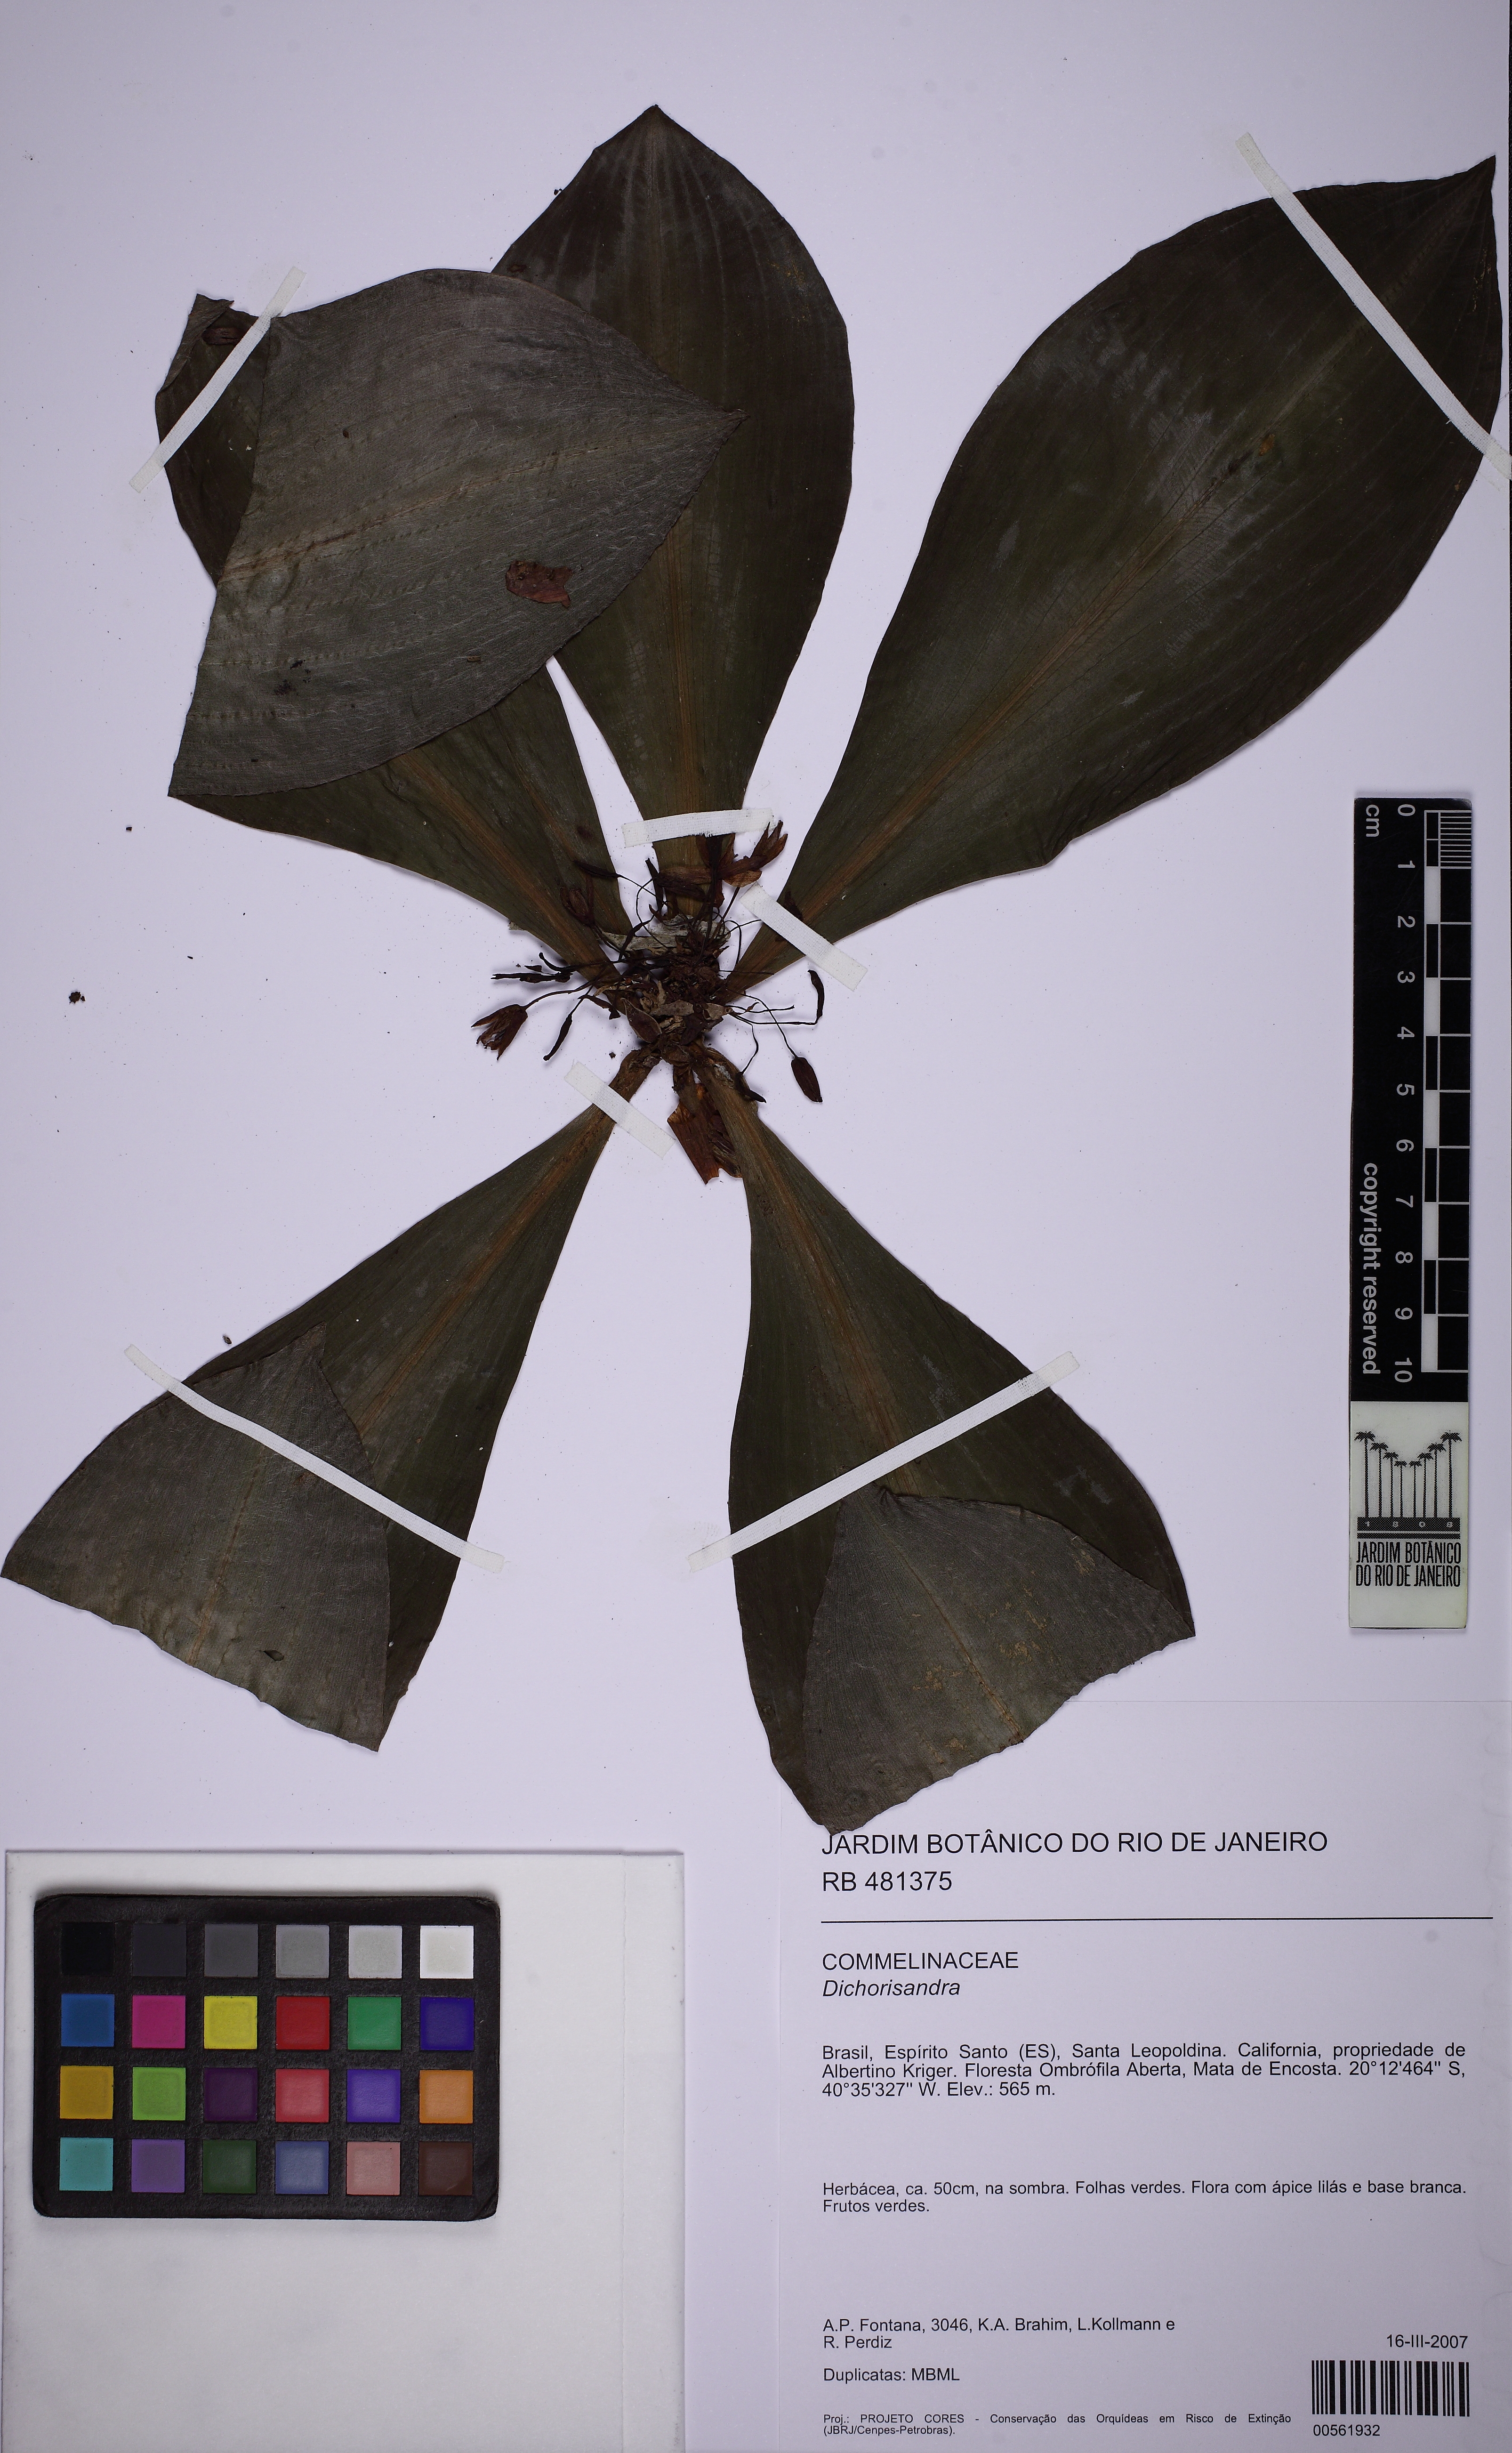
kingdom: Plantae
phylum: Tracheophyta
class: Liliopsida
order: Commelinales
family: Commelinaceae
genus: Dichorisandra
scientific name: Dichorisandra acaulis
